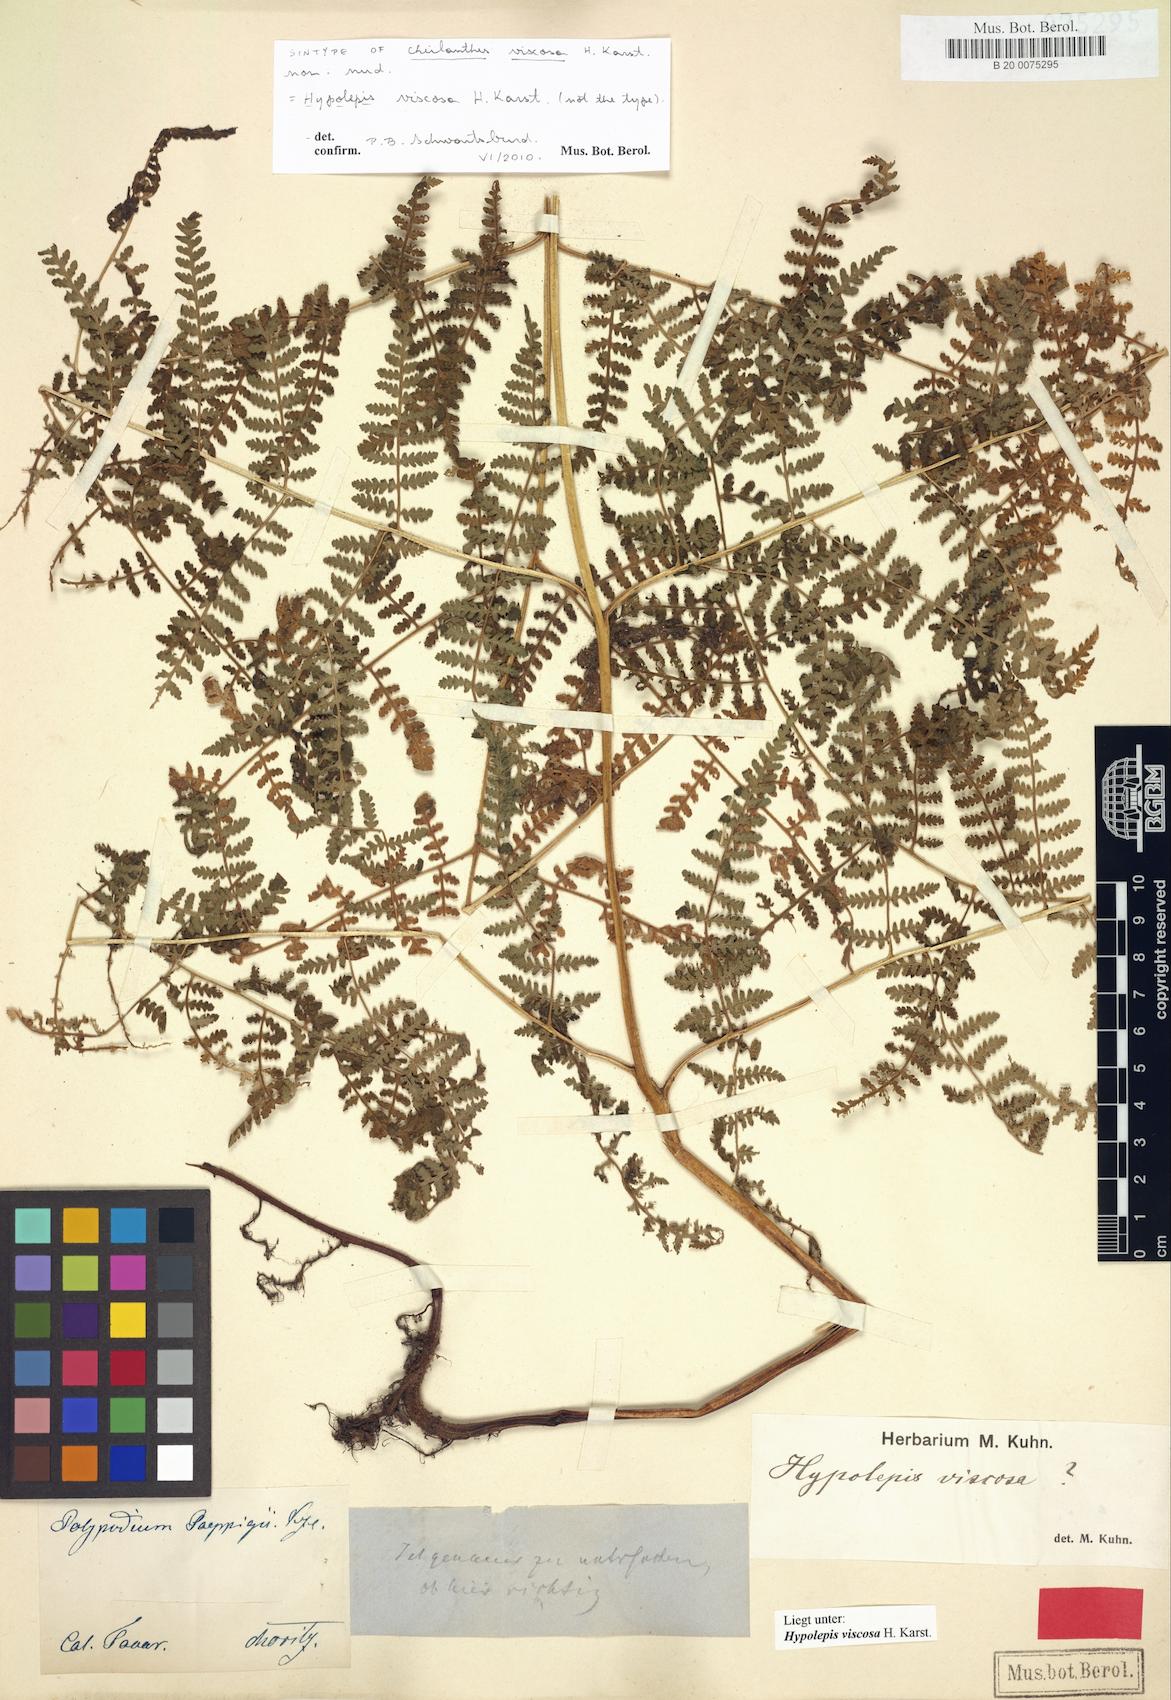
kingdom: Plantae
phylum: Tracheophyta
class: Polypodiopsida
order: Polypodiales
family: Dennstaedtiaceae
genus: Hypolepis
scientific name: Hypolepis viscosa
